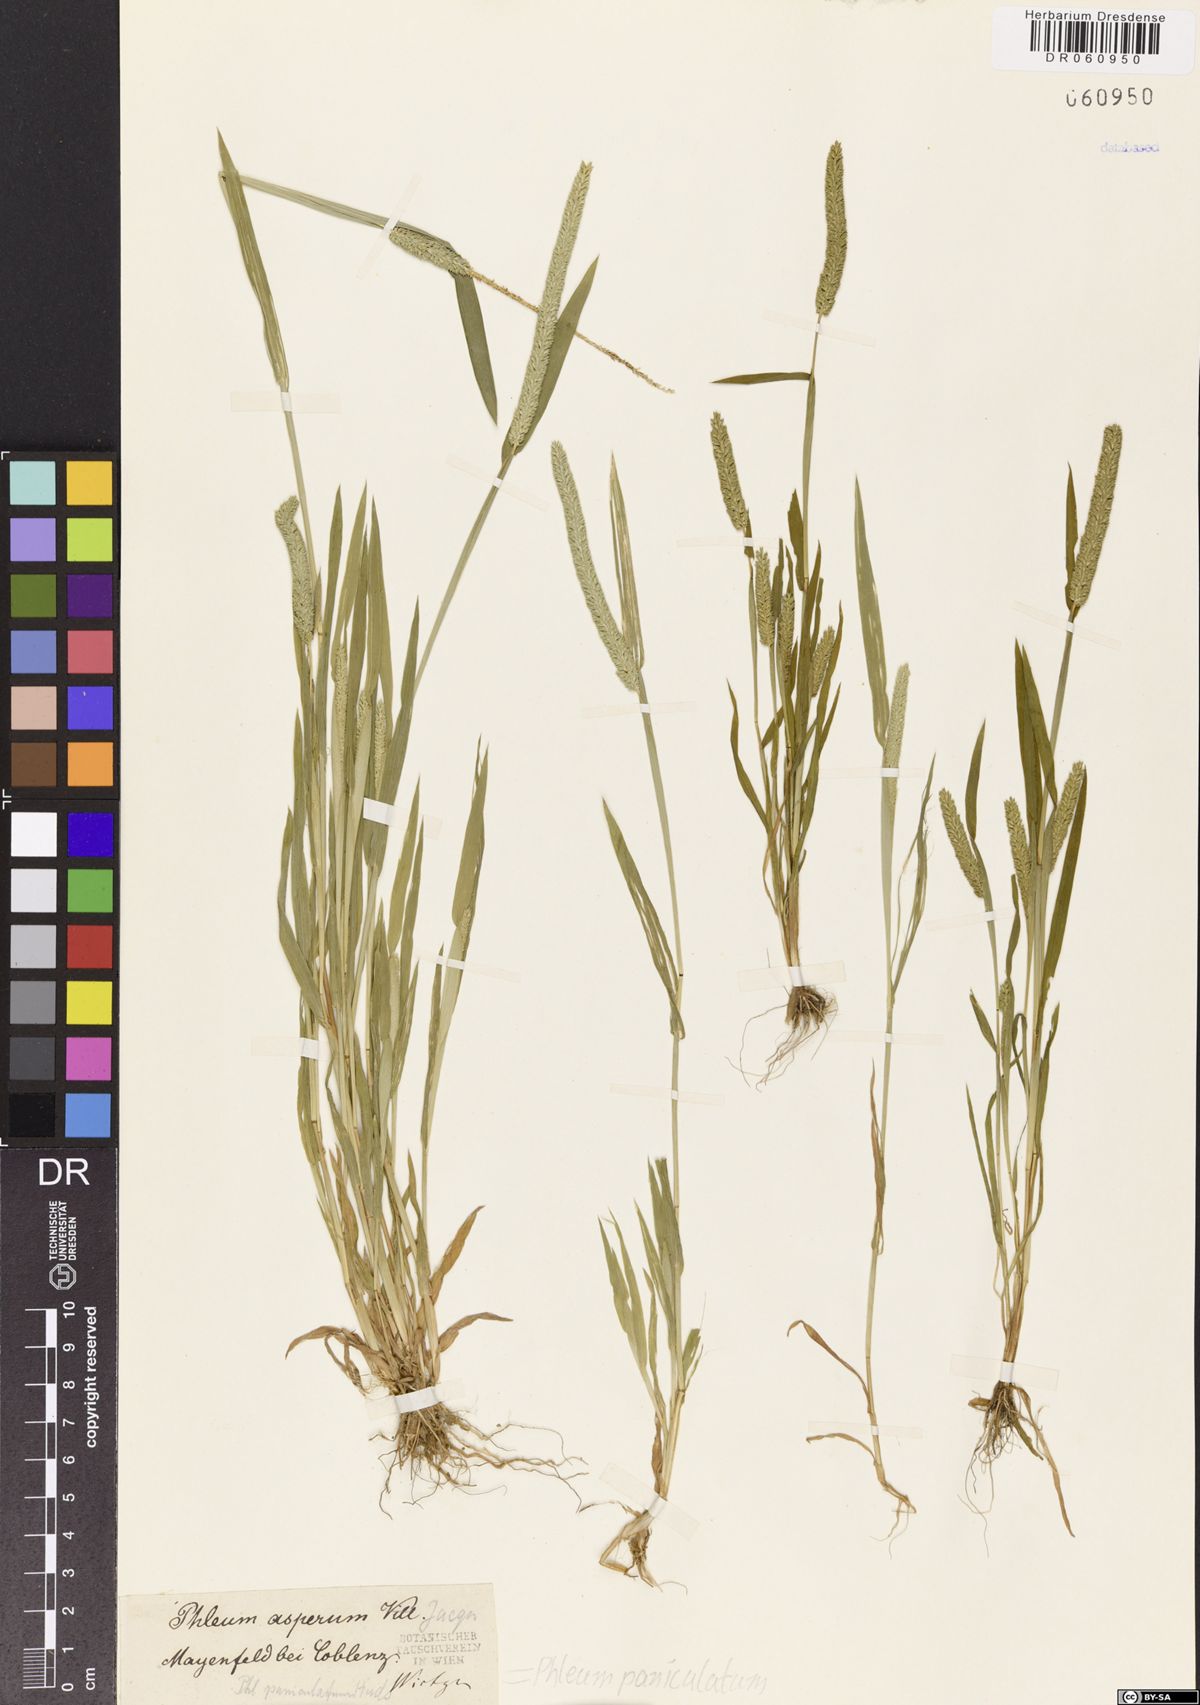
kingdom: Plantae
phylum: Tracheophyta
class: Liliopsida
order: Poales
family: Poaceae
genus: Phleum
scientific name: Phleum paniculatum
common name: British timothy
